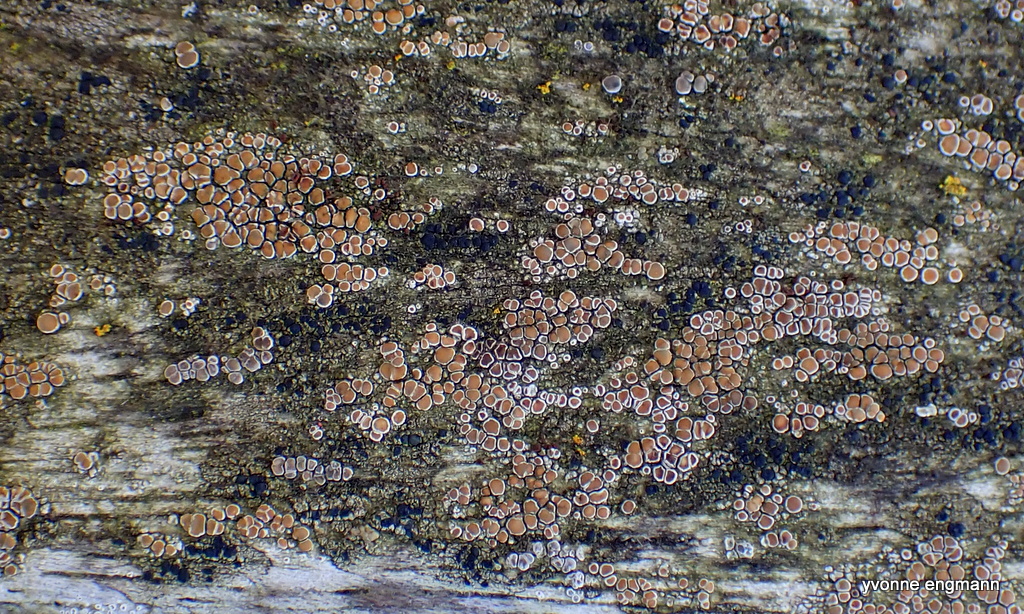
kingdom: Fungi
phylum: Ascomycota
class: Lecanoromycetes
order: Lecanorales
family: Lecanoraceae
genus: Lecanora
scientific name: Lecanora chlarotera
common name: brun kantskivelav
